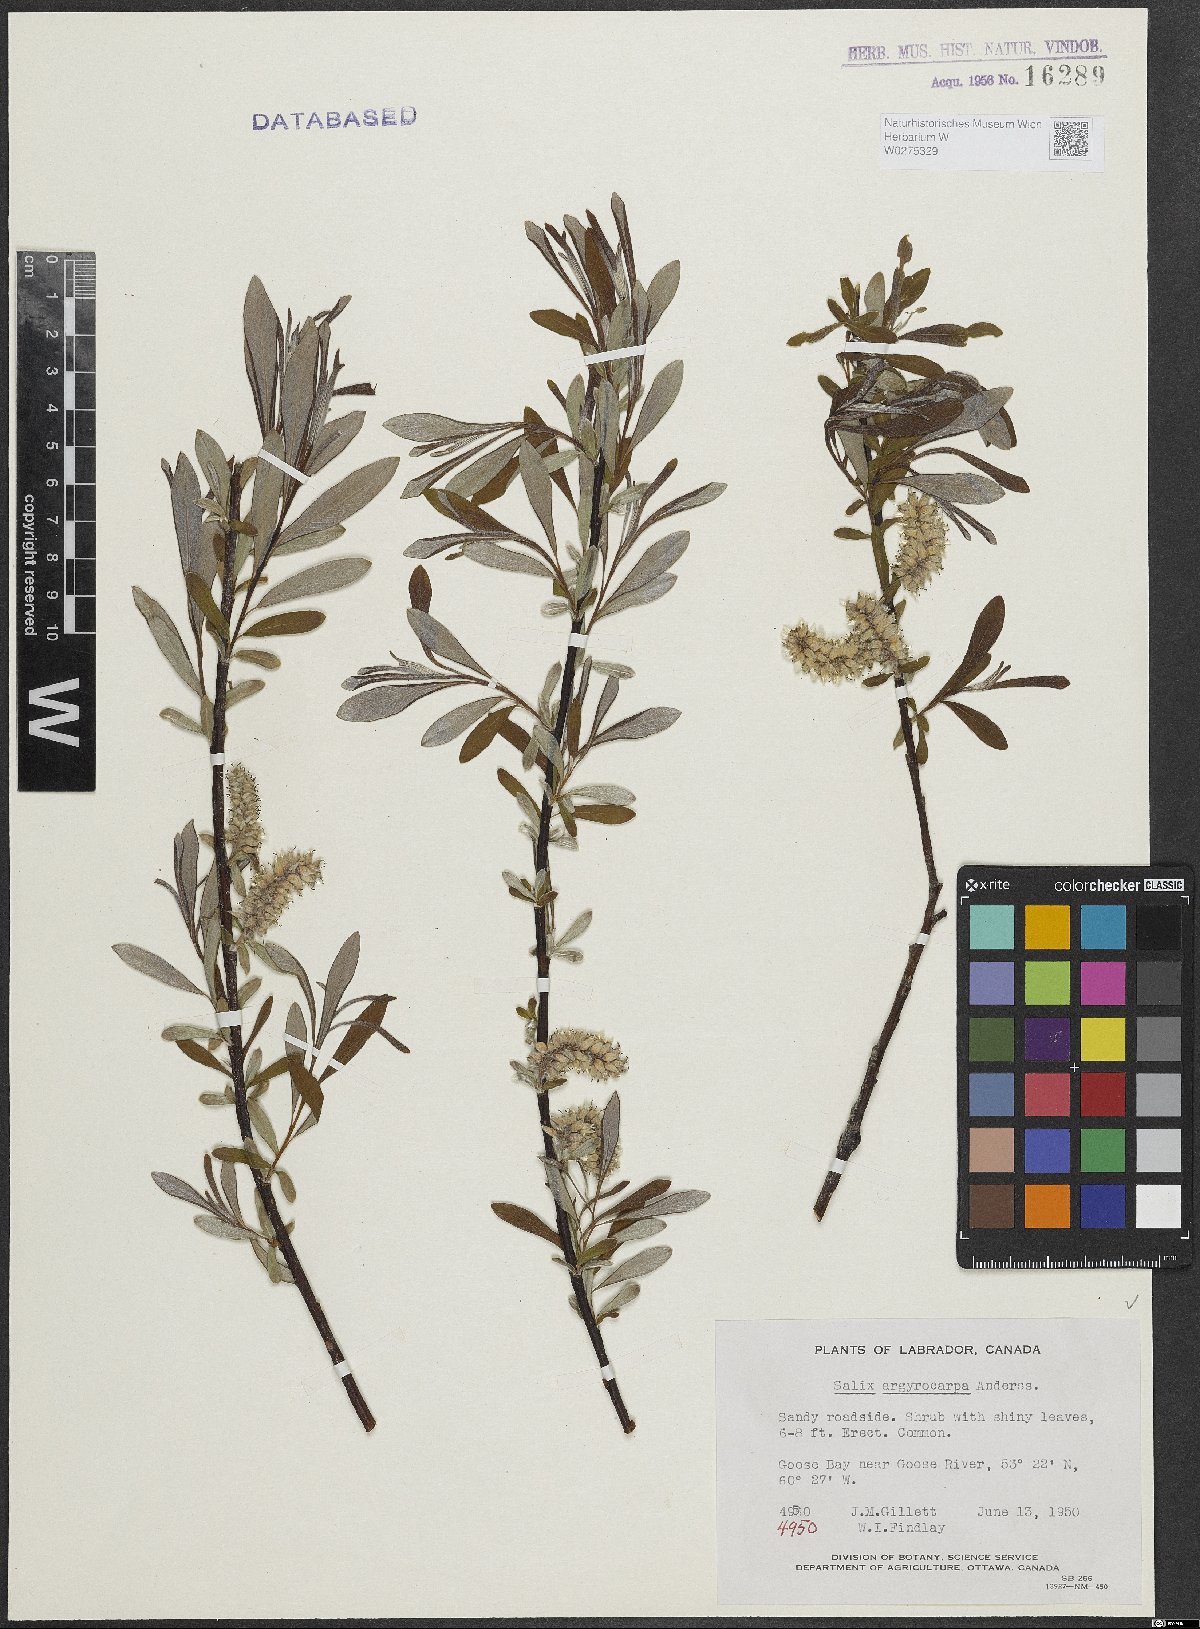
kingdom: Plantae
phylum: Tracheophyta
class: Magnoliopsida
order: Malpighiales
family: Salicaceae
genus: Salix
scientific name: Salix argyrocarpa
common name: Labrador willow
